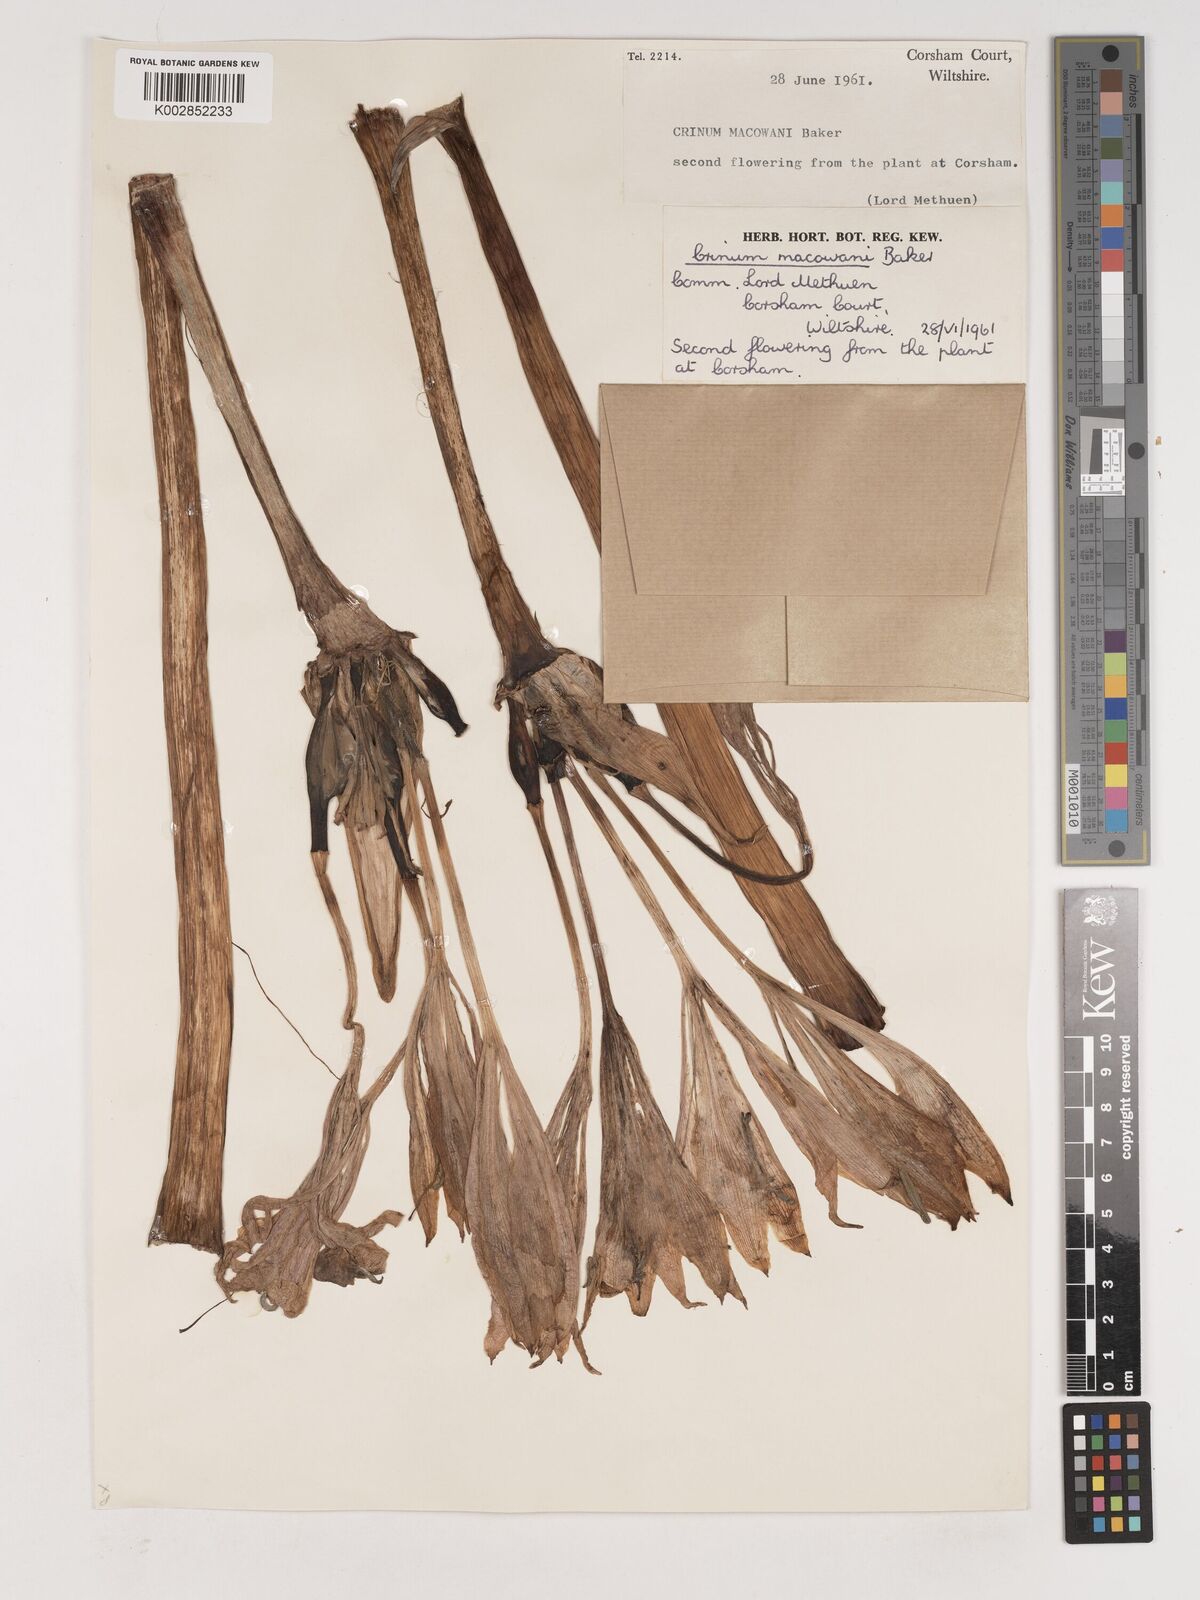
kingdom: Plantae
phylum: Tracheophyta
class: Liliopsida
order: Asparagales
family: Amaryllidaceae
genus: Crinum
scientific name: Crinum macowanii
